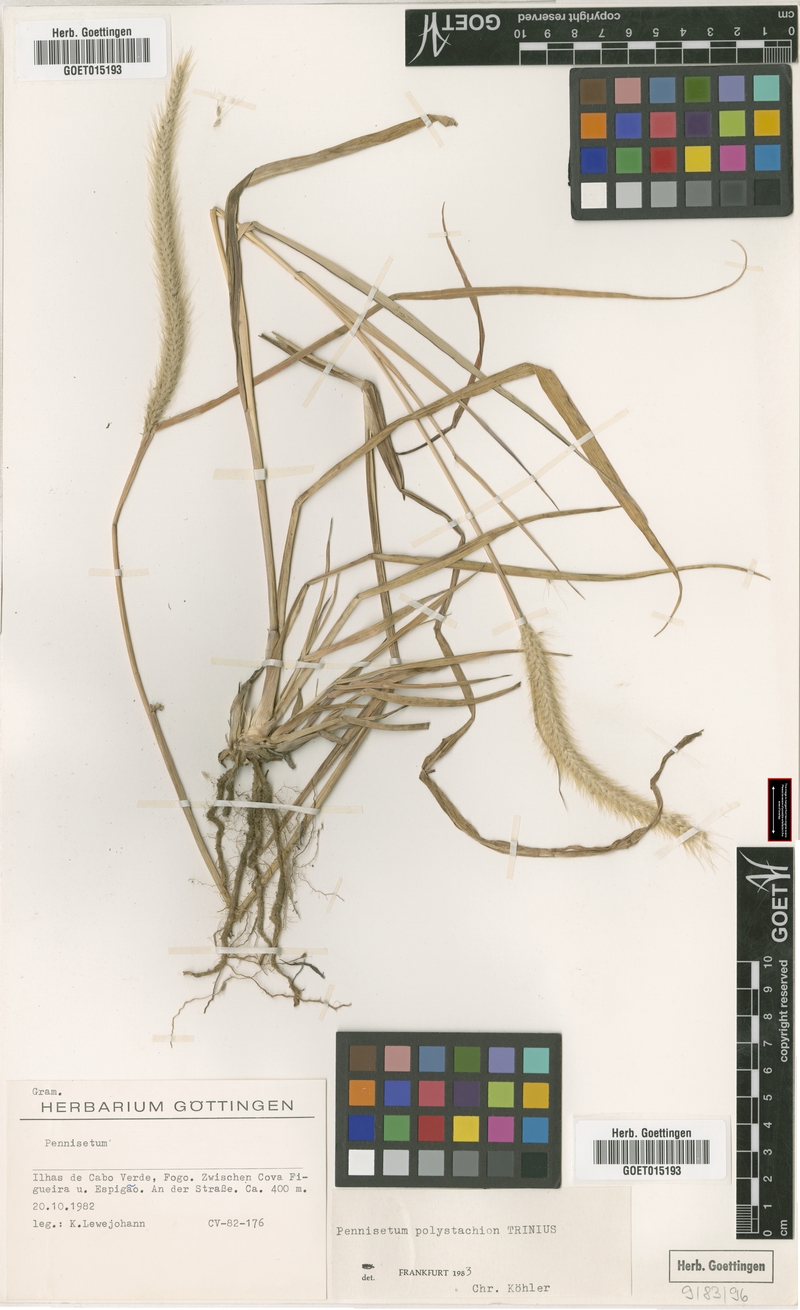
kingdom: Plantae
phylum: Tracheophyta
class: Liliopsida
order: Poales
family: Poaceae
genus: Setaria
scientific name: Setaria parviflora
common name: Knotroot bristle-grass
